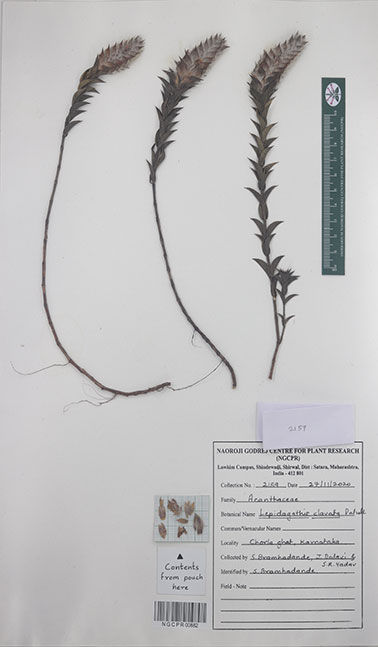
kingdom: Plantae
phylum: Tracheophyta
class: Magnoliopsida
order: Lamiales
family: Acanthaceae
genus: Lepidagathis
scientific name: Lepidagathis clavata
